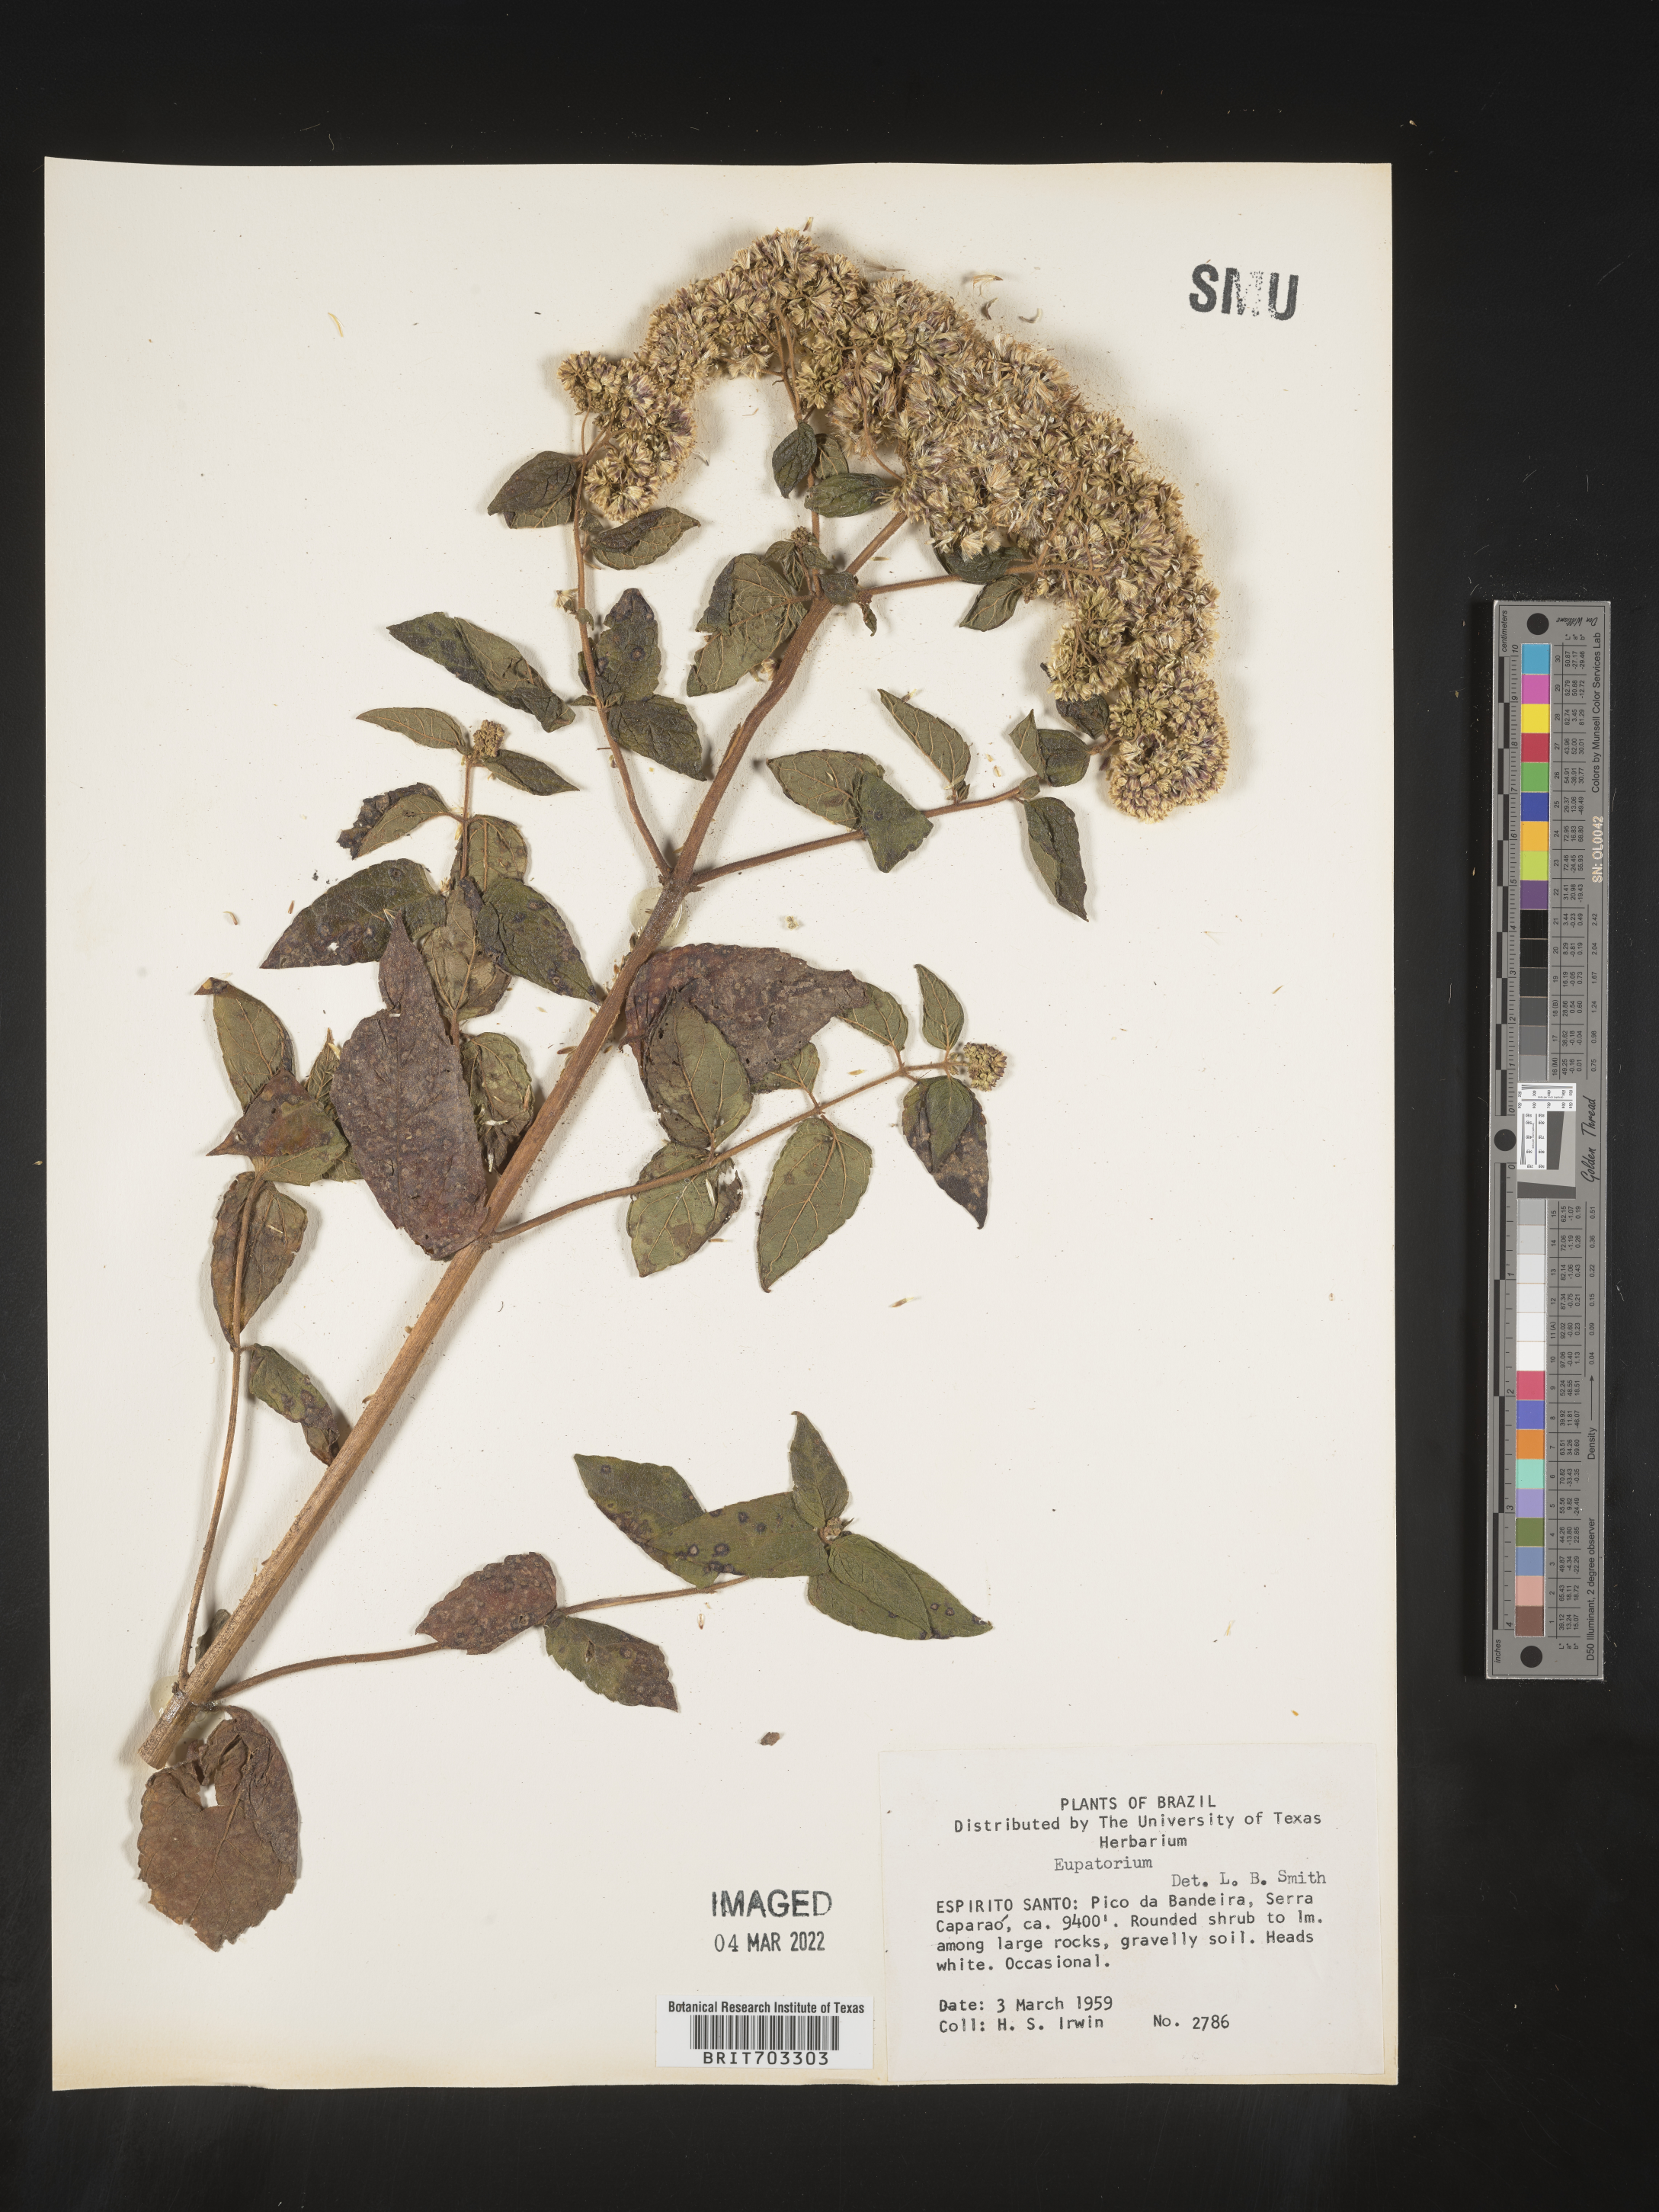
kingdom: Plantae
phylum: Tracheophyta
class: Magnoliopsida
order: Asterales
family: Asteraceae
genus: Eupatorium
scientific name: Eupatorium
